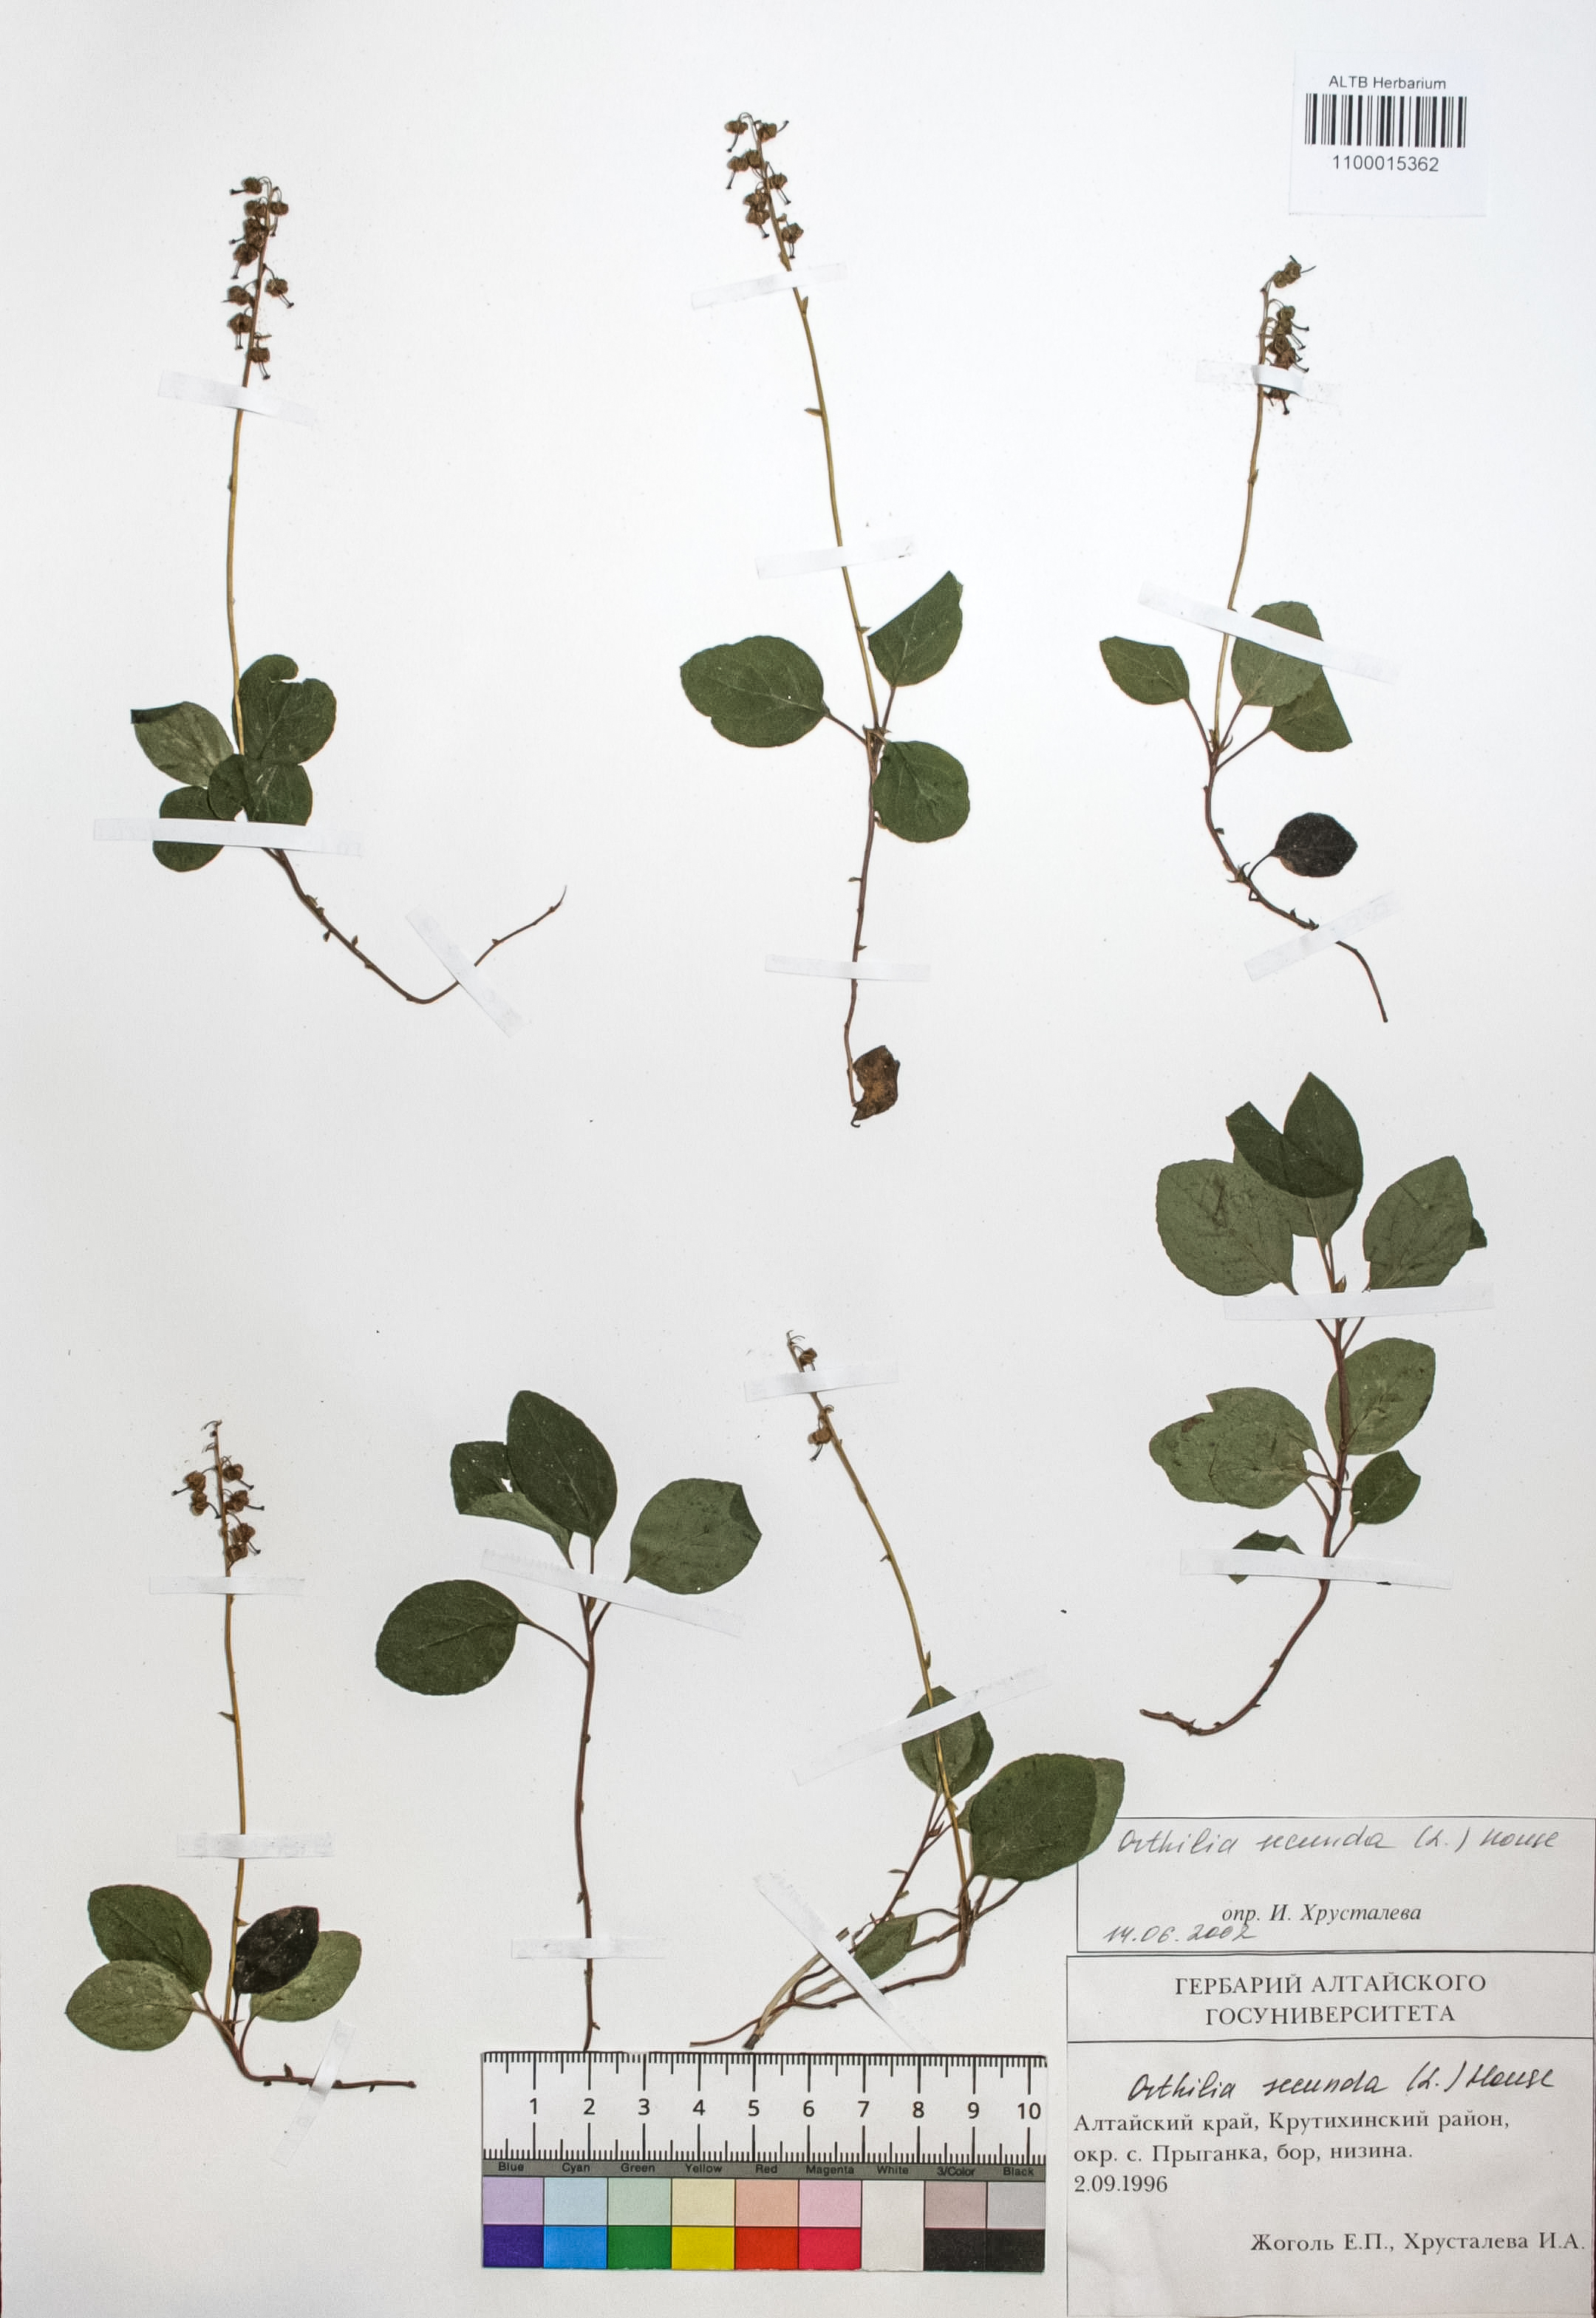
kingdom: Plantae
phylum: Tracheophyta
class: Magnoliopsida
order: Ericales
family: Ericaceae
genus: Orthilia
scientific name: Orthilia secunda
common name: One-sided orthilia
